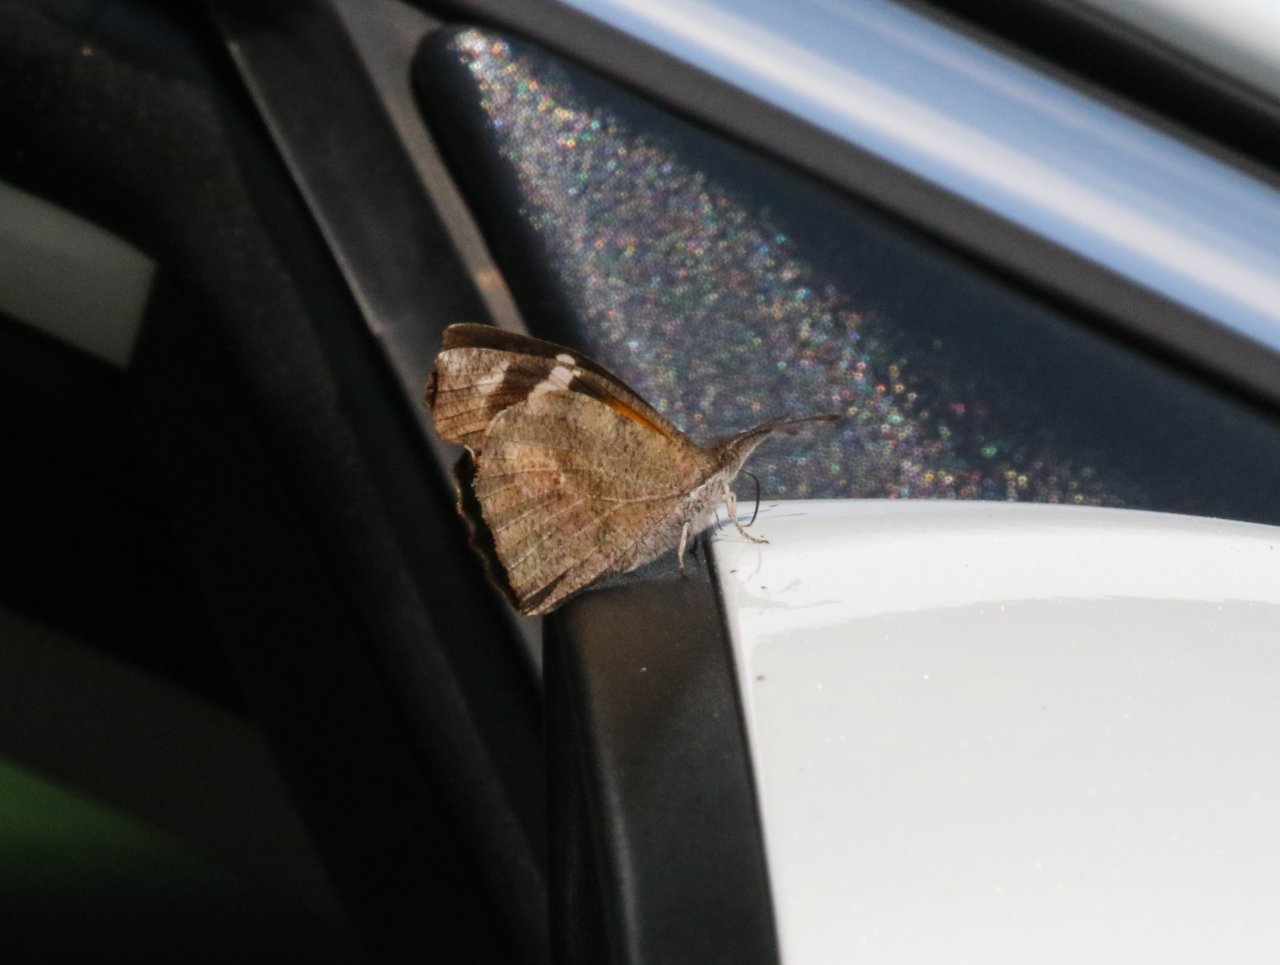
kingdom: Animalia
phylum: Arthropoda
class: Insecta
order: Lepidoptera
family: Nymphalidae
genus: Libytheana
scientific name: Libytheana carinenta
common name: American Snout
